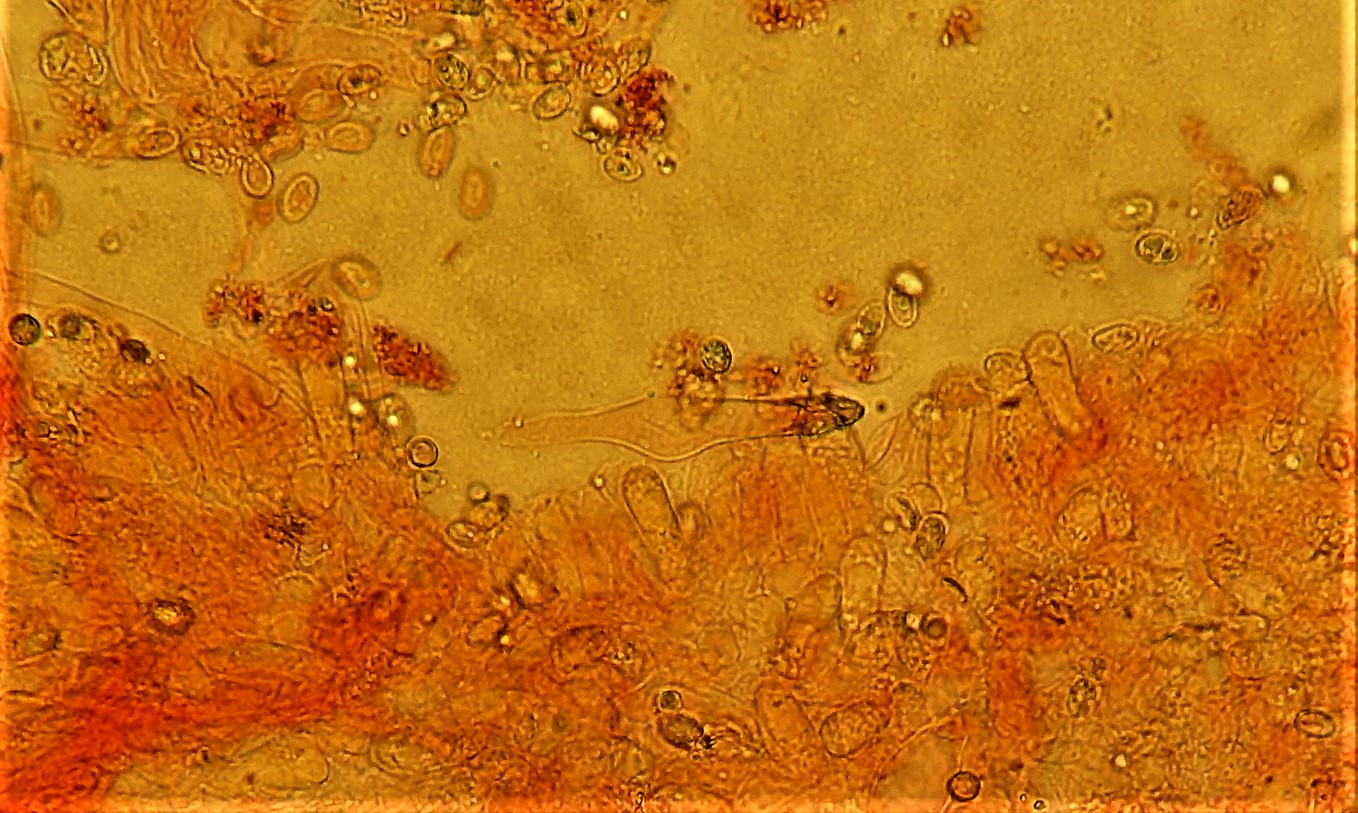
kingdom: Fungi
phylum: Basidiomycota
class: Agaricomycetes
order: Agaricales
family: Tricholomataceae
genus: Melanoleuca
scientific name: Melanoleuca polioleuca
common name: almindelig munkehat
